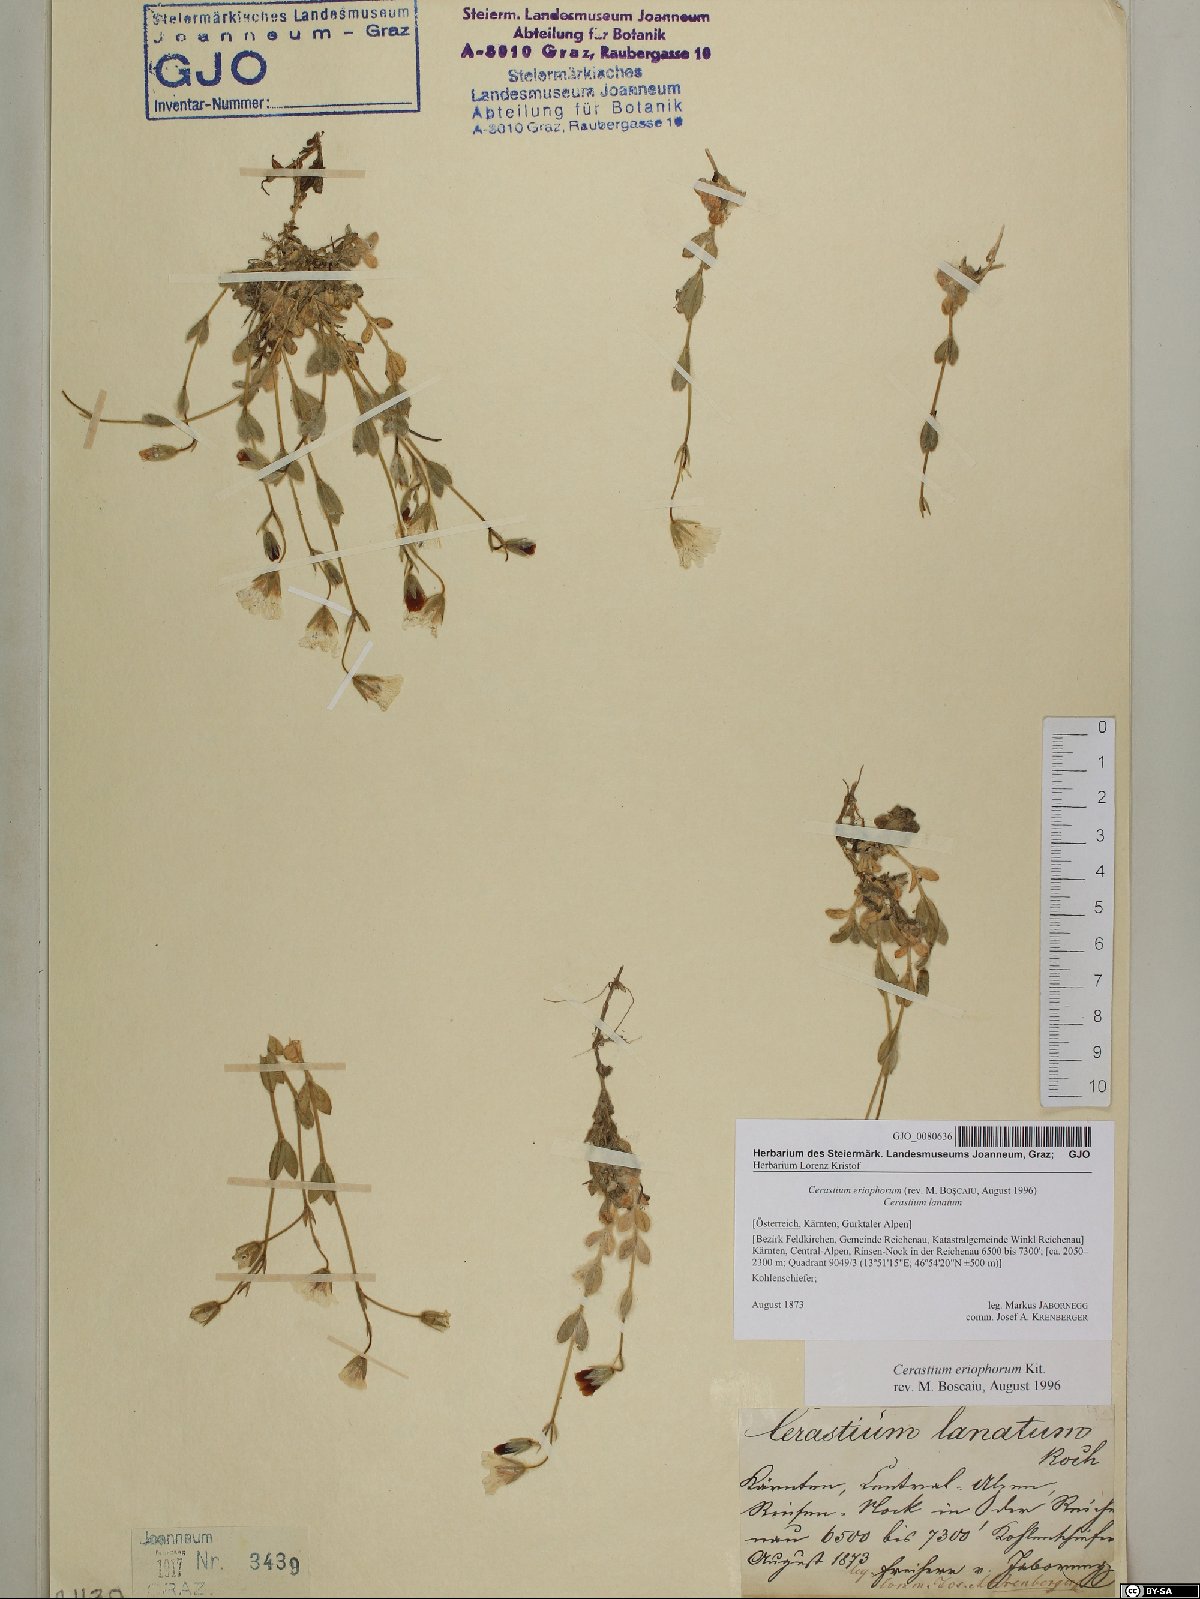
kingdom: Plantae
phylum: Tracheophyta
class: Magnoliopsida
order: Caryophyllales
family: Caryophyllaceae
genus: Cerastium
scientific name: Cerastium eriophorum
